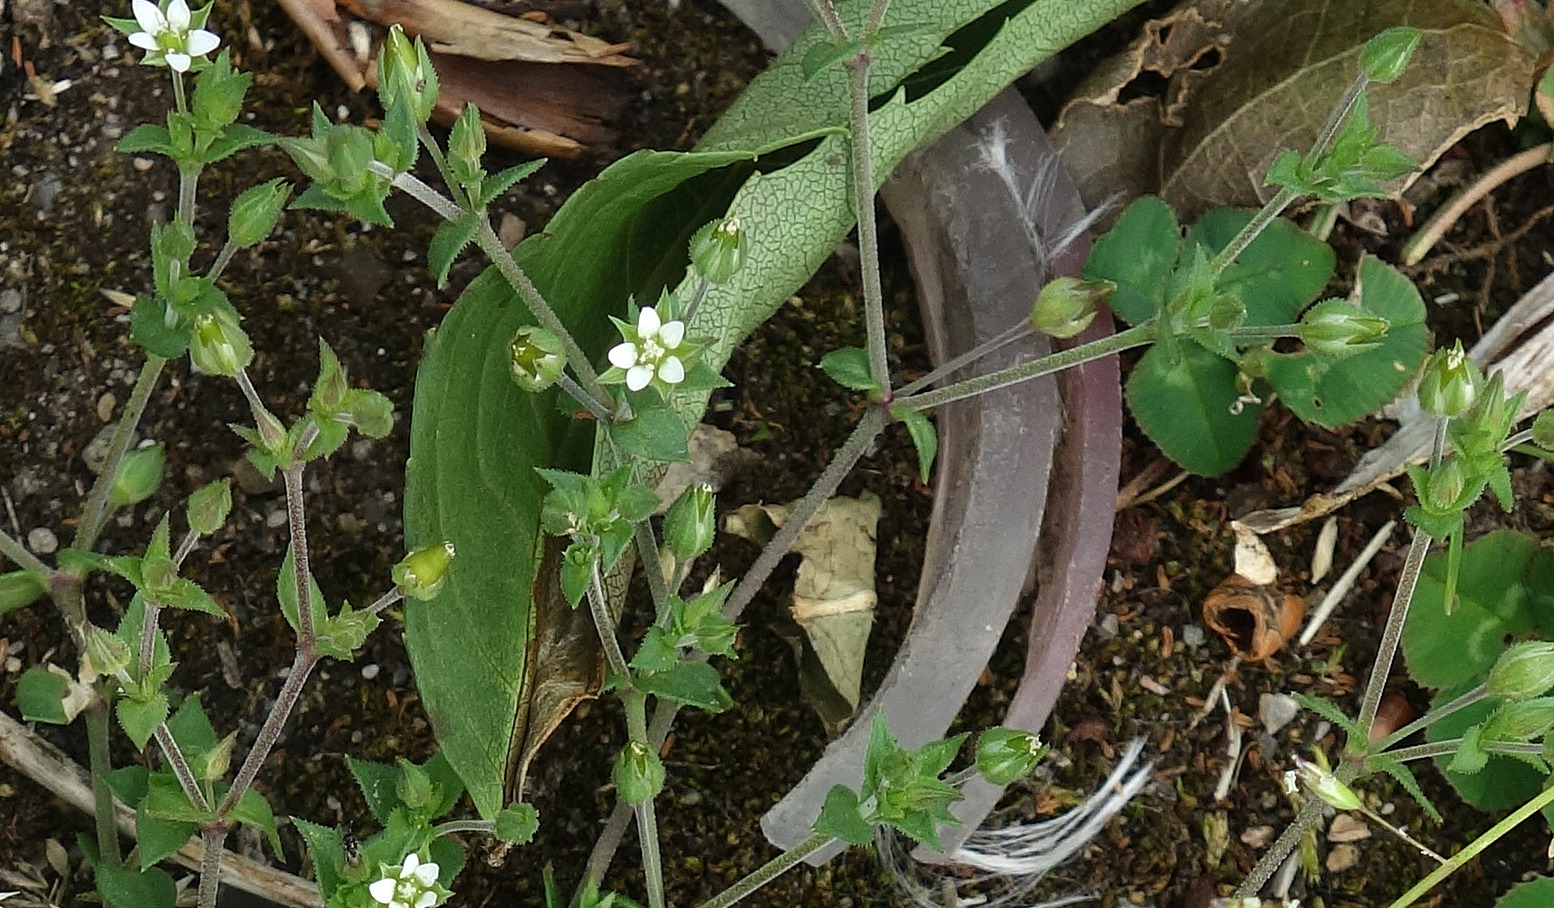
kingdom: Plantae
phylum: Tracheophyta
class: Magnoliopsida
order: Caryophyllales
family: Caryophyllaceae
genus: Arenaria
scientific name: Arenaria serpyllifolia
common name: Almindelig markarve
